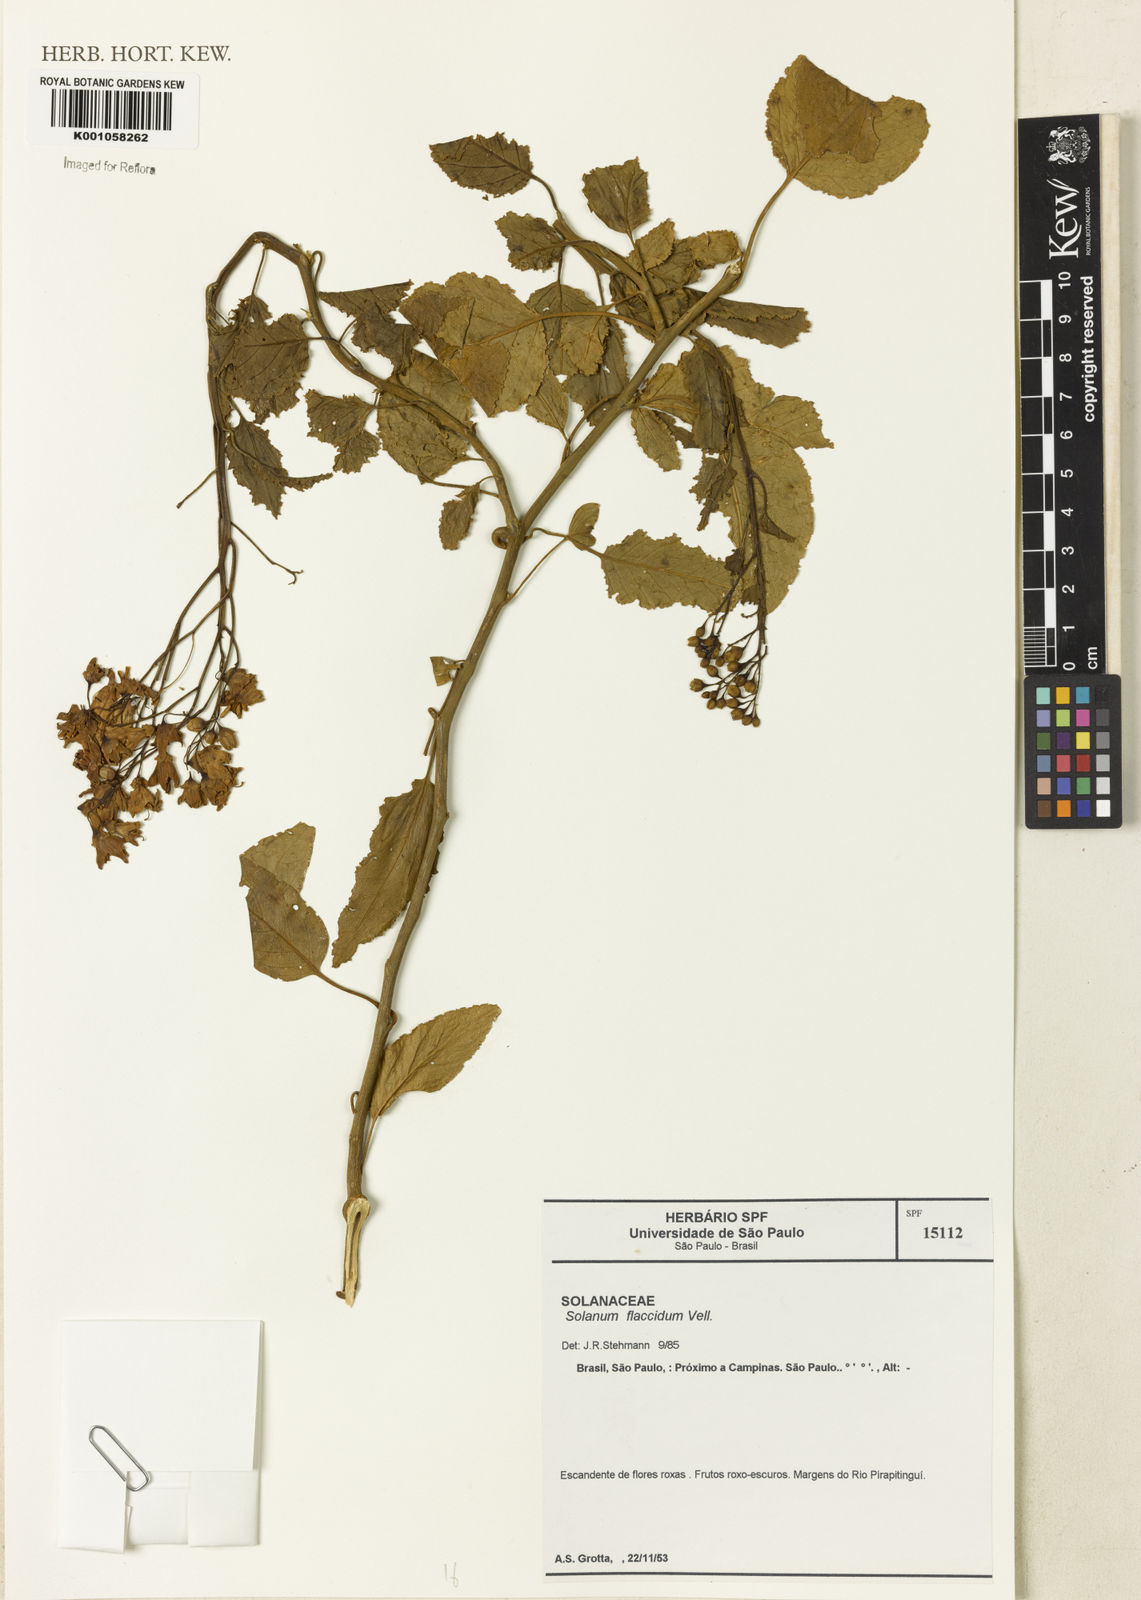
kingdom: Plantae
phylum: Tracheophyta
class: Magnoliopsida
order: Solanales
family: Solanaceae
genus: Solanum
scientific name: Solanum flaccidum
